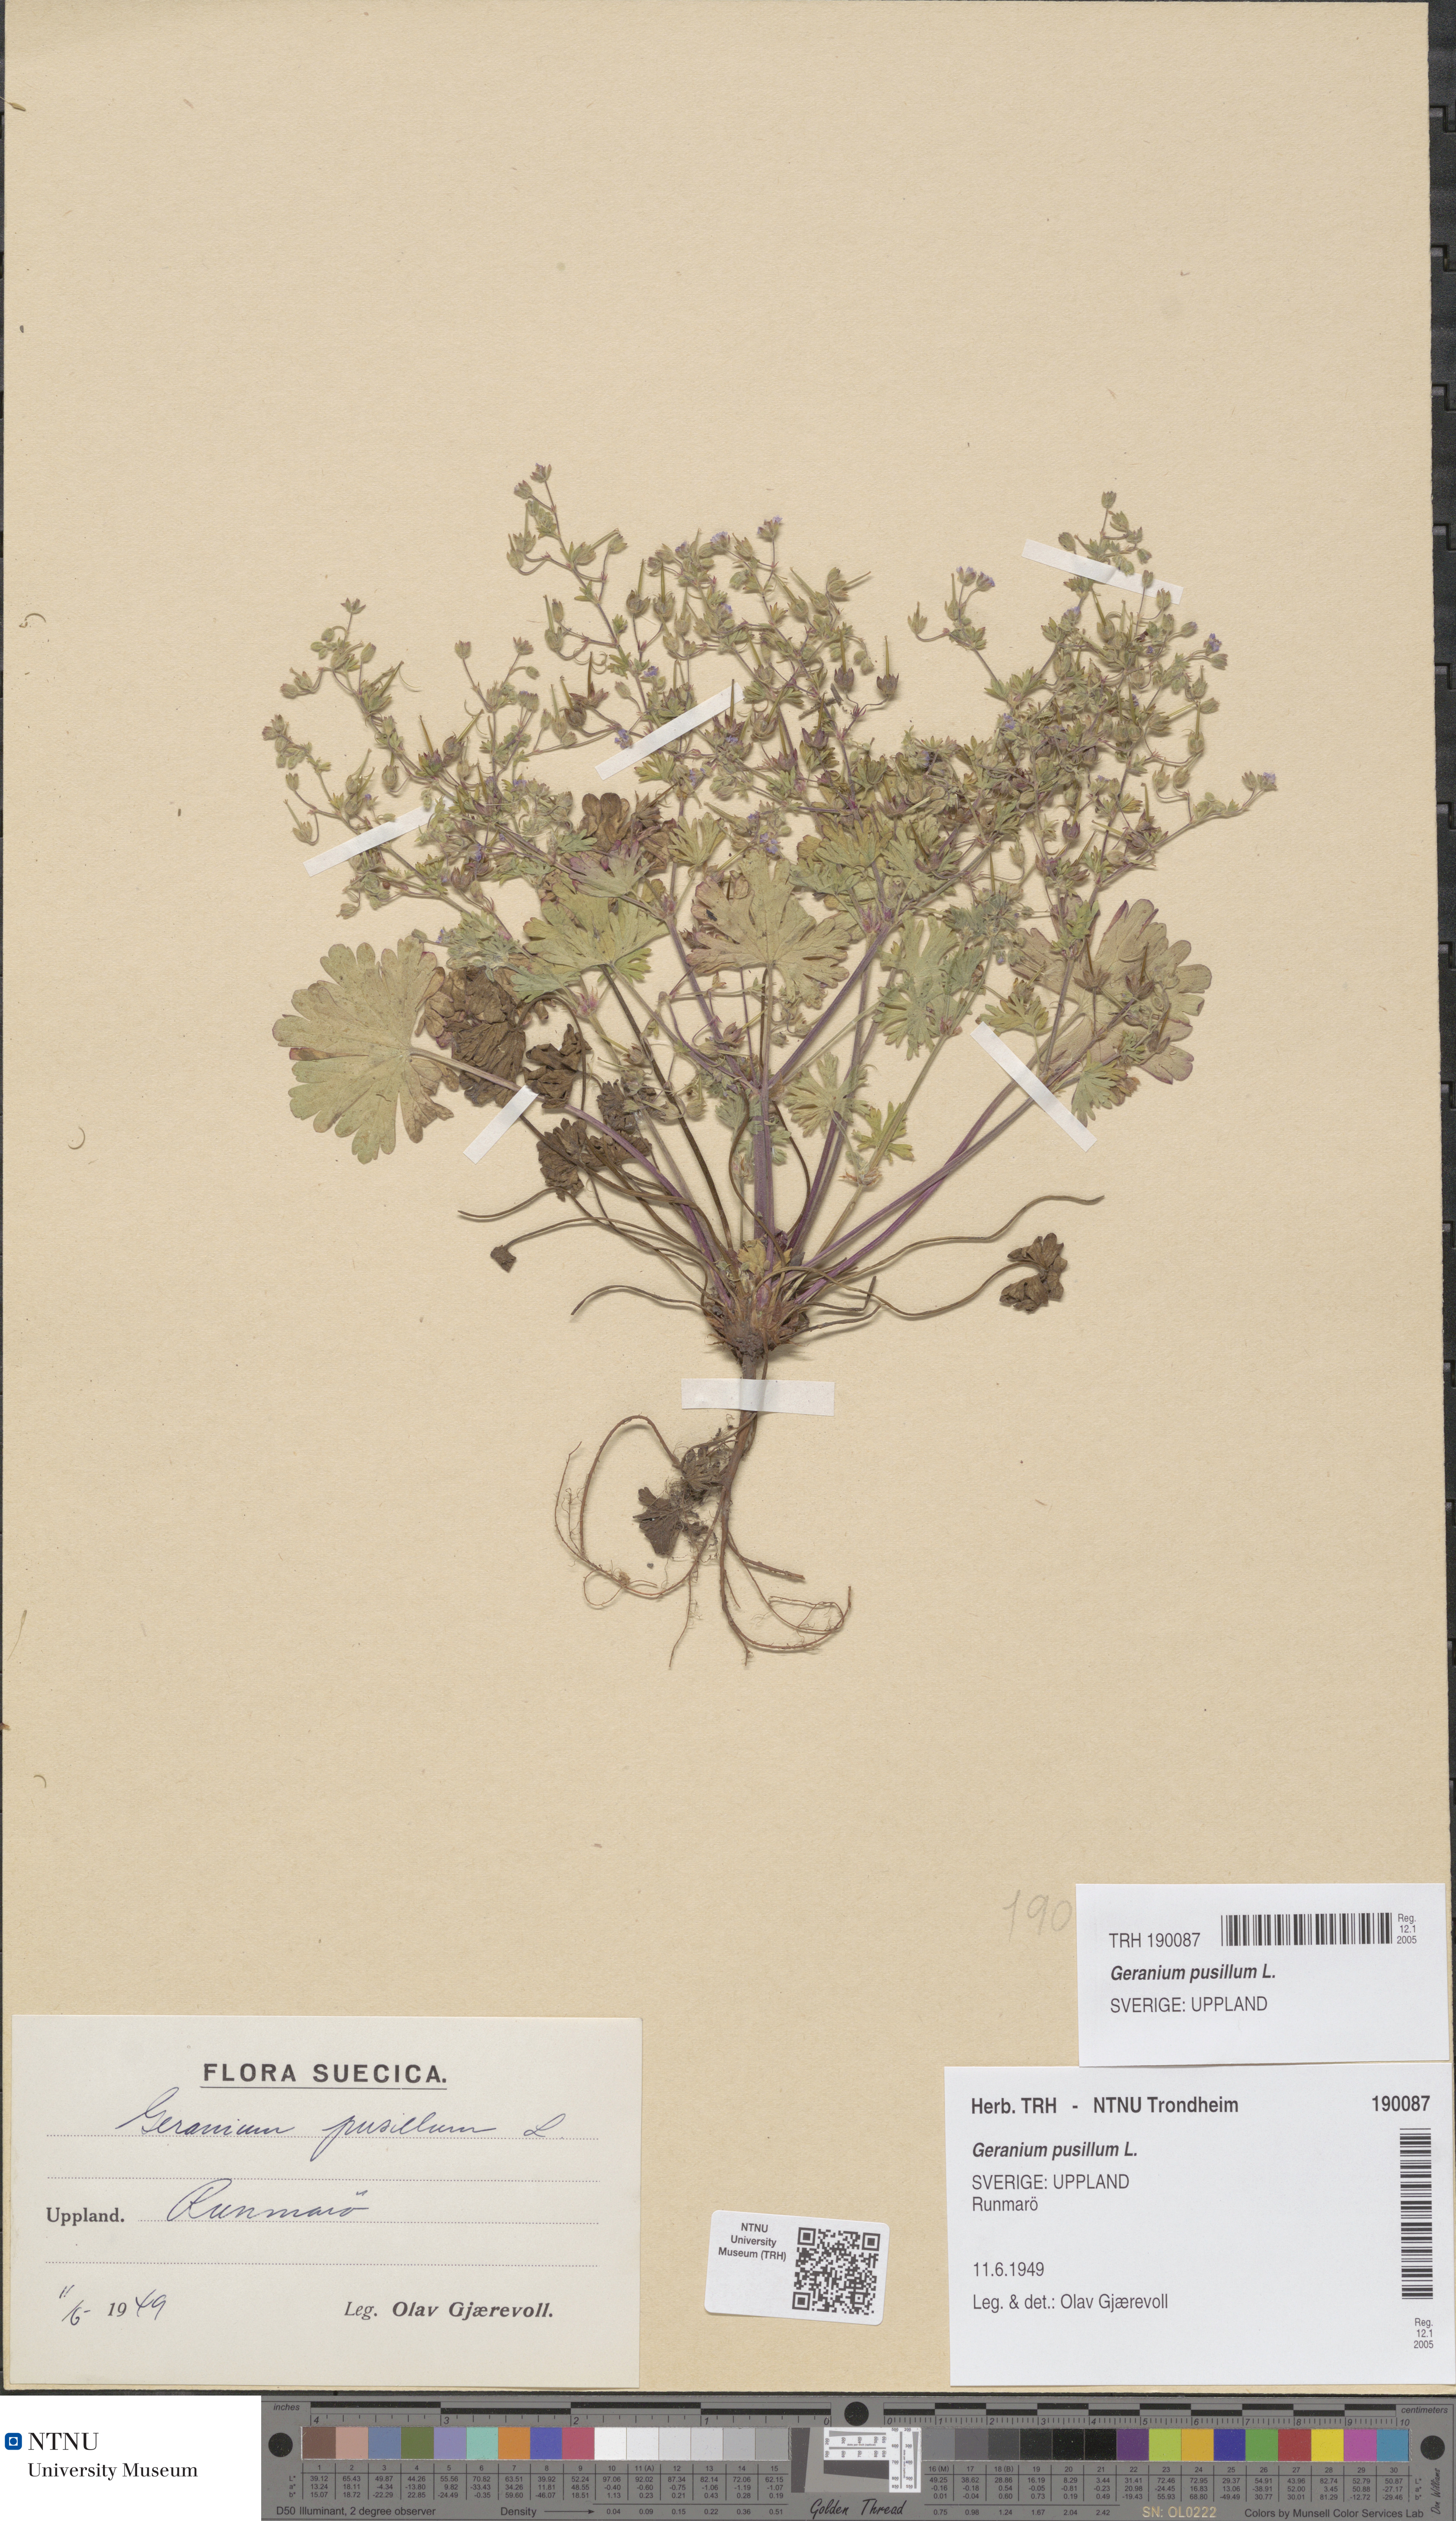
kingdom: Plantae
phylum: Tracheophyta
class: Magnoliopsida
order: Geraniales
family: Geraniaceae
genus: Geranium
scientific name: Geranium pusillum
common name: Small geranium
